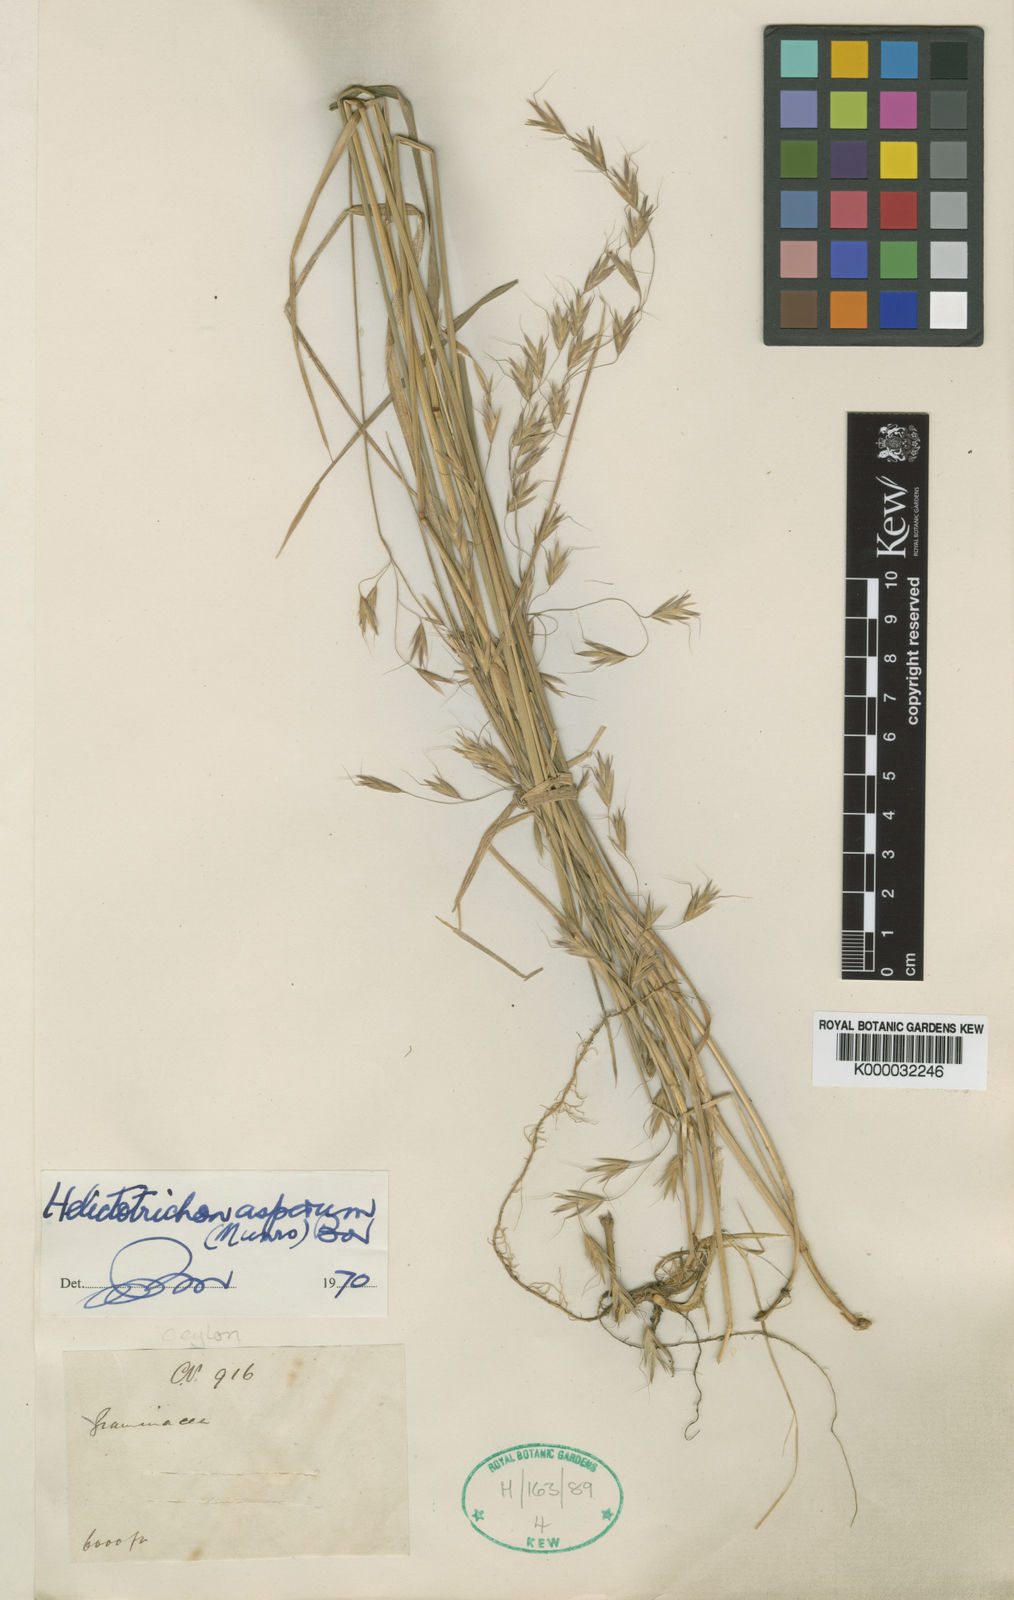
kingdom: Plantae
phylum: Tracheophyta
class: Liliopsida
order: Poales
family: Poaceae
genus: Trisetopsis
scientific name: Trisetopsis virescens
